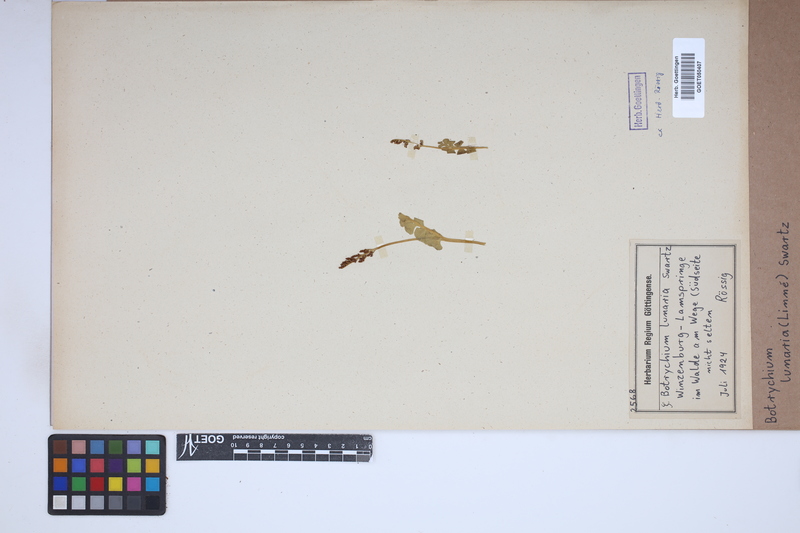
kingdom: Plantae
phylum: Tracheophyta
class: Polypodiopsida
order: Ophioglossales
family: Ophioglossaceae
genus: Botrychium
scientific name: Botrychium lunaria
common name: Moonwort
